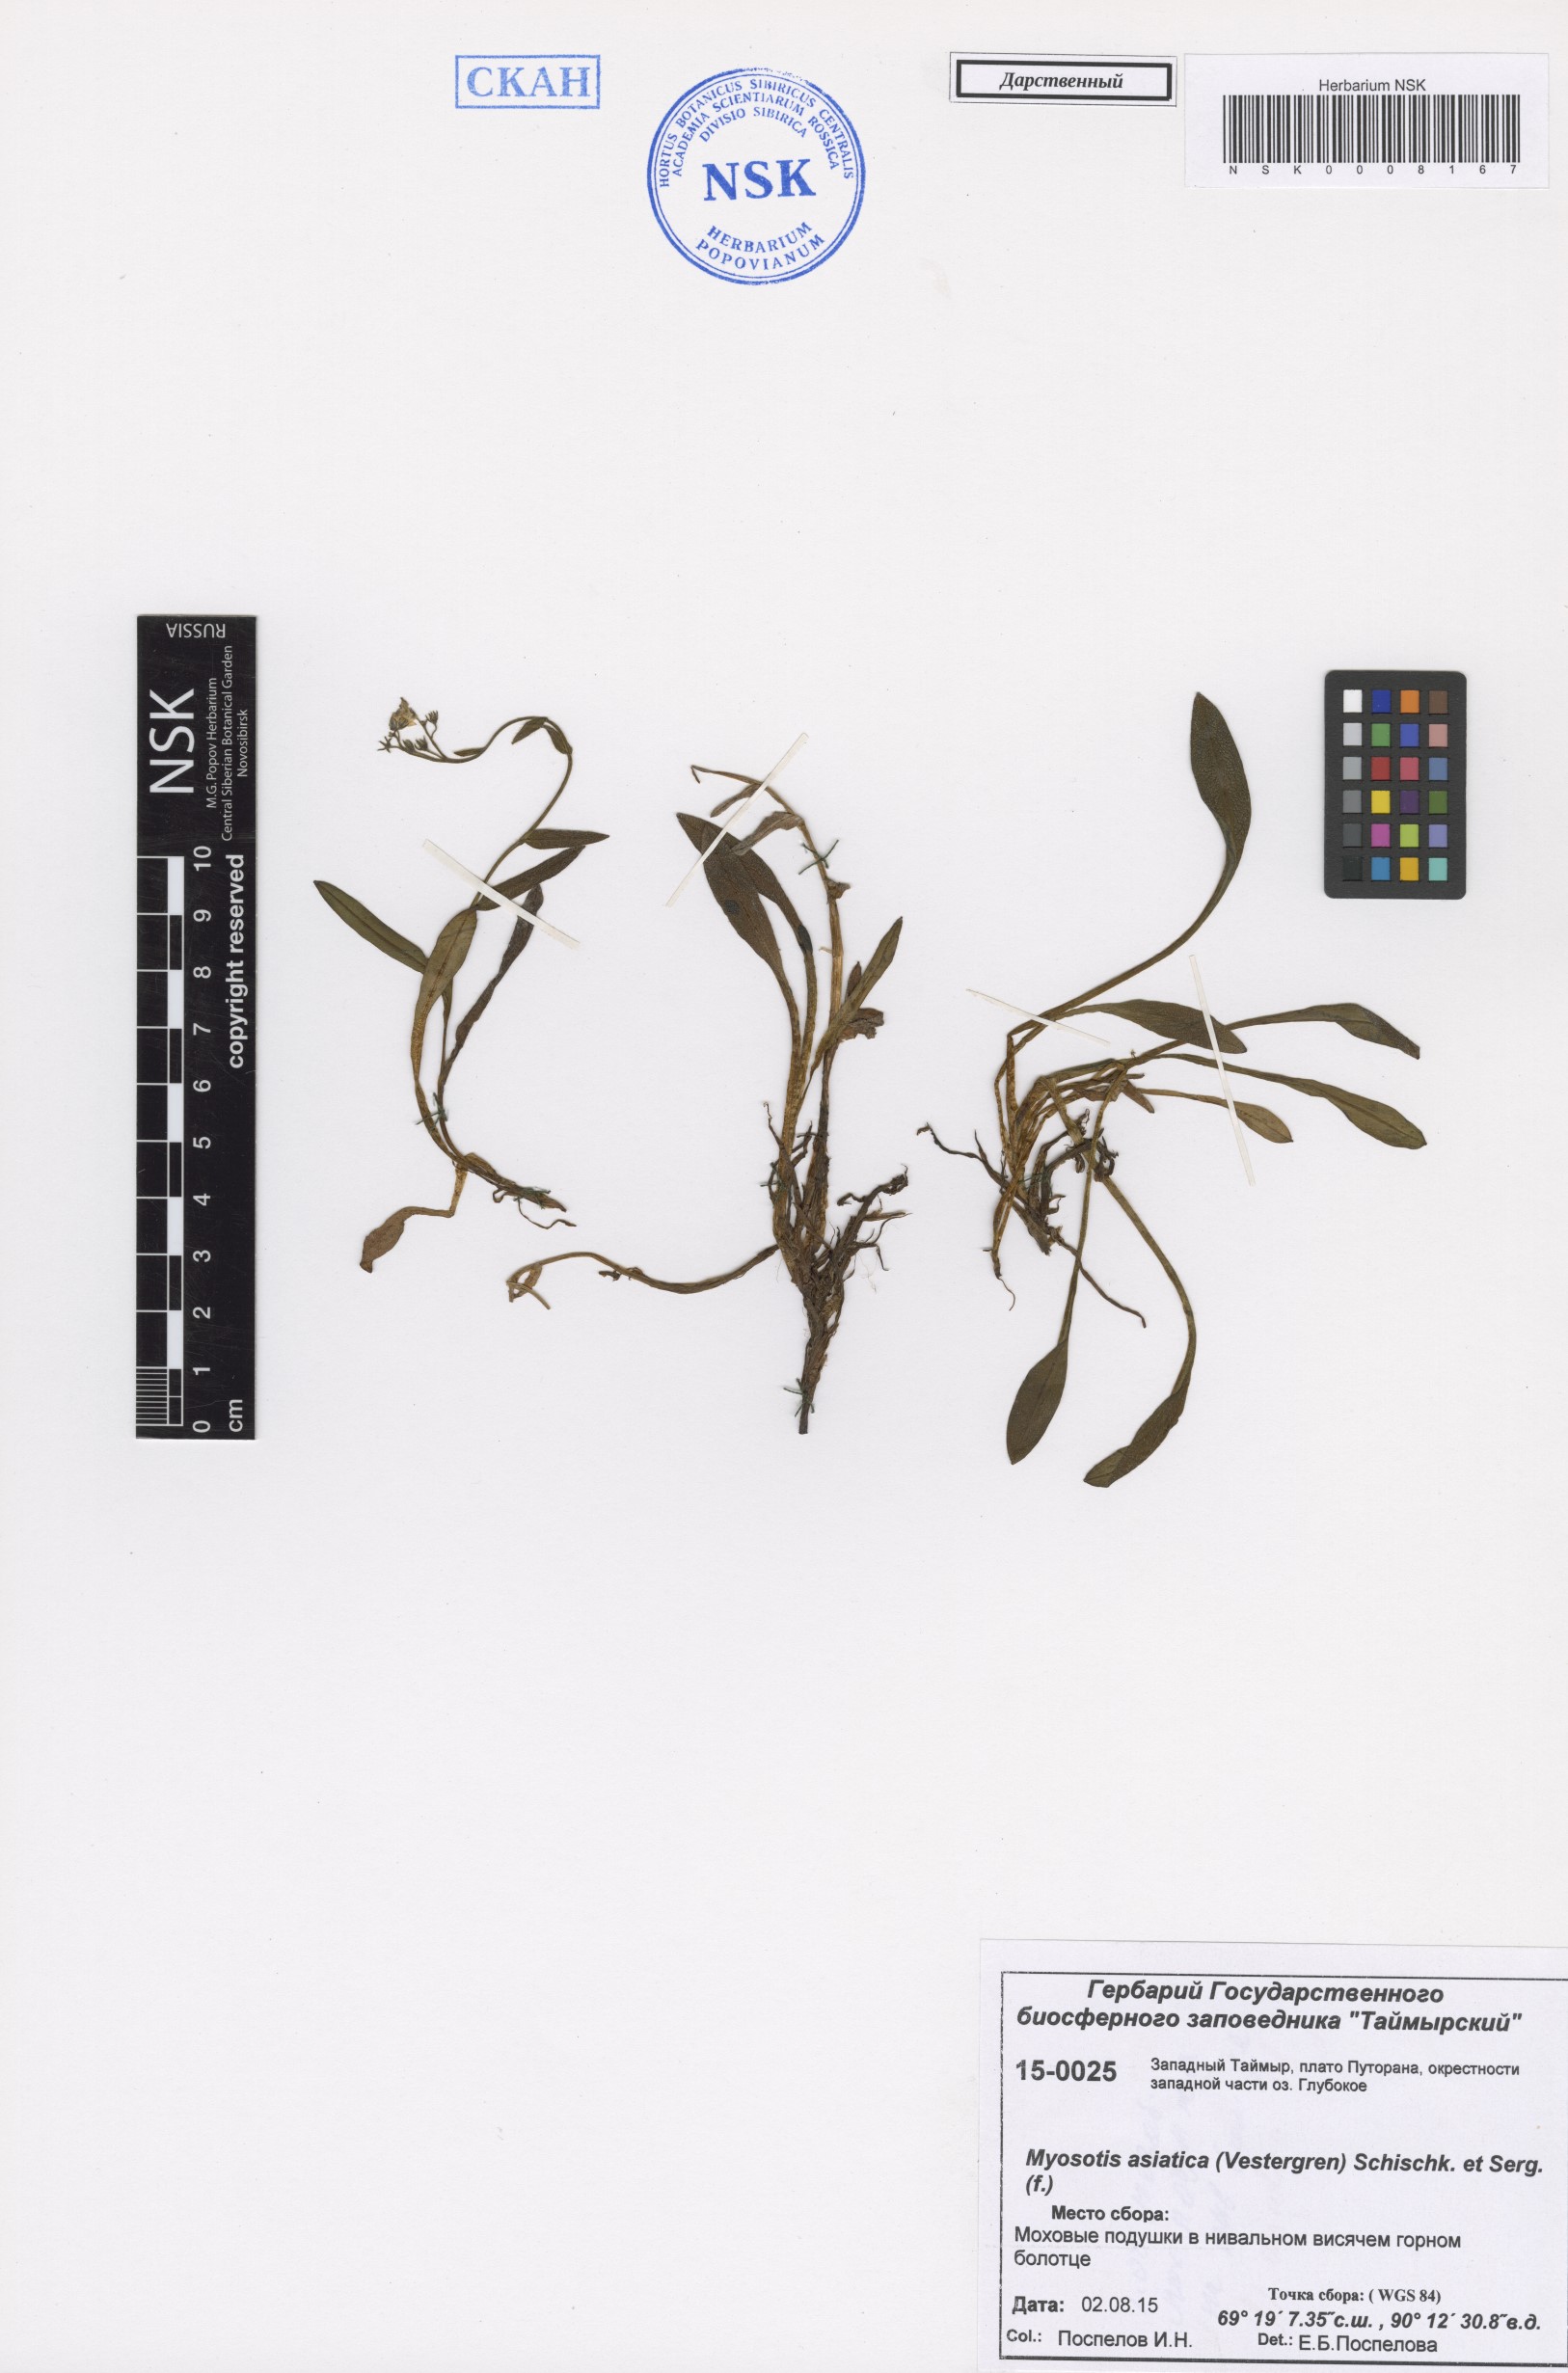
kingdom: Plantae
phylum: Tracheophyta
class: Magnoliopsida
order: Boraginales
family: Boraginaceae
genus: Myosotis
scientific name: Myosotis asiatica
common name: Asian forget-me-not
